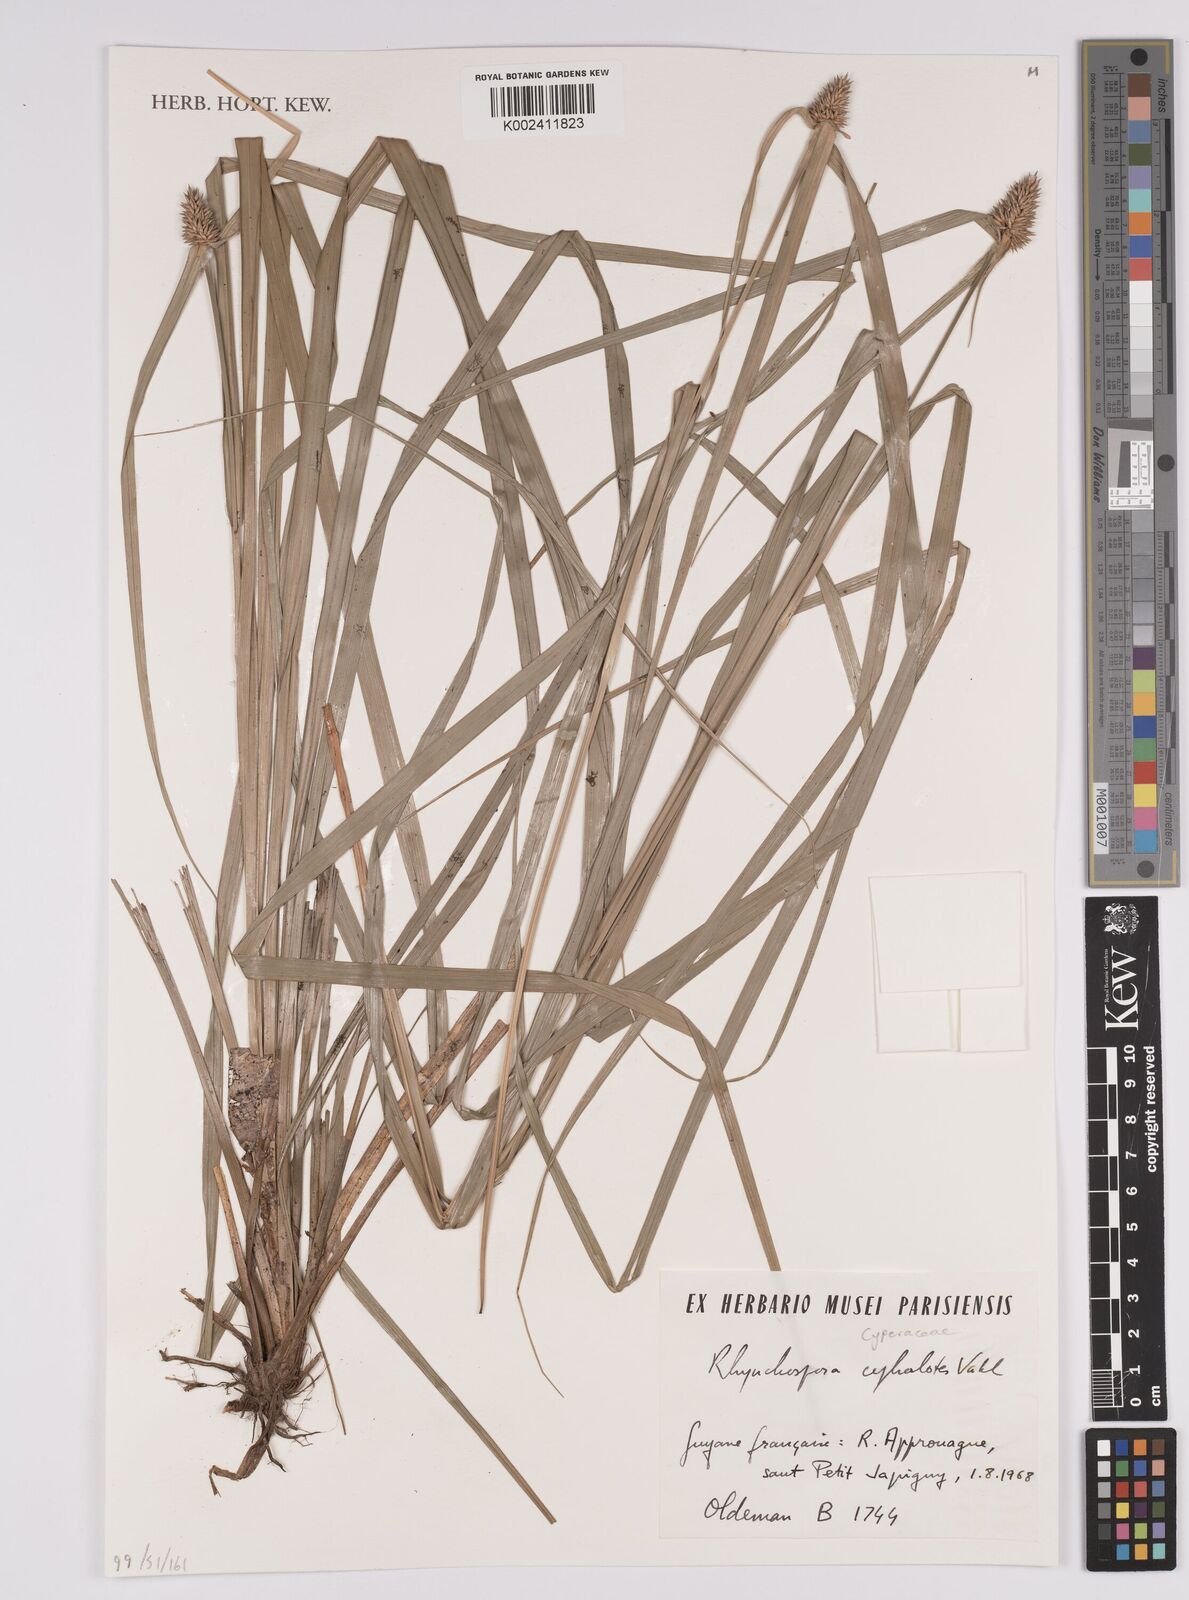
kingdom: Plantae
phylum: Tracheophyta
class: Liliopsida
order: Poales
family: Cyperaceae
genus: Rhynchospora
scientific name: Rhynchospora cephalotes
